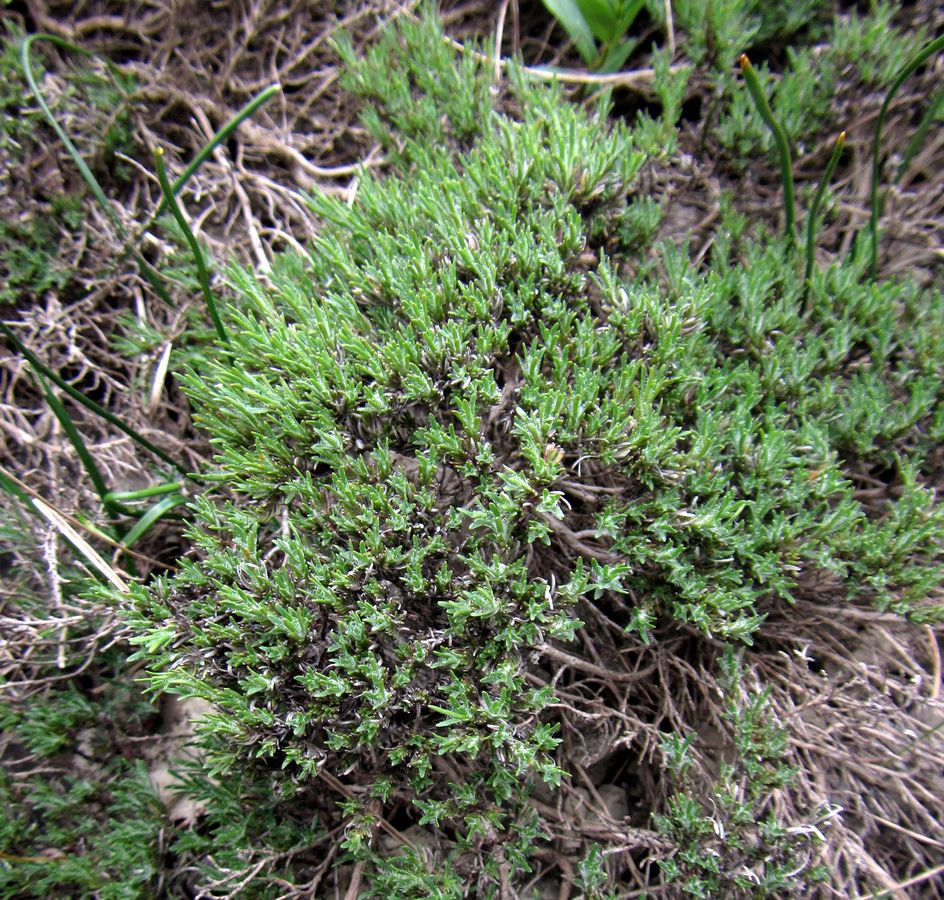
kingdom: Plantae
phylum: Tracheophyta
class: Magnoliopsida
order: Lamiales
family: Lamiaceae
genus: Thymus
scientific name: Thymus helendzhicus
